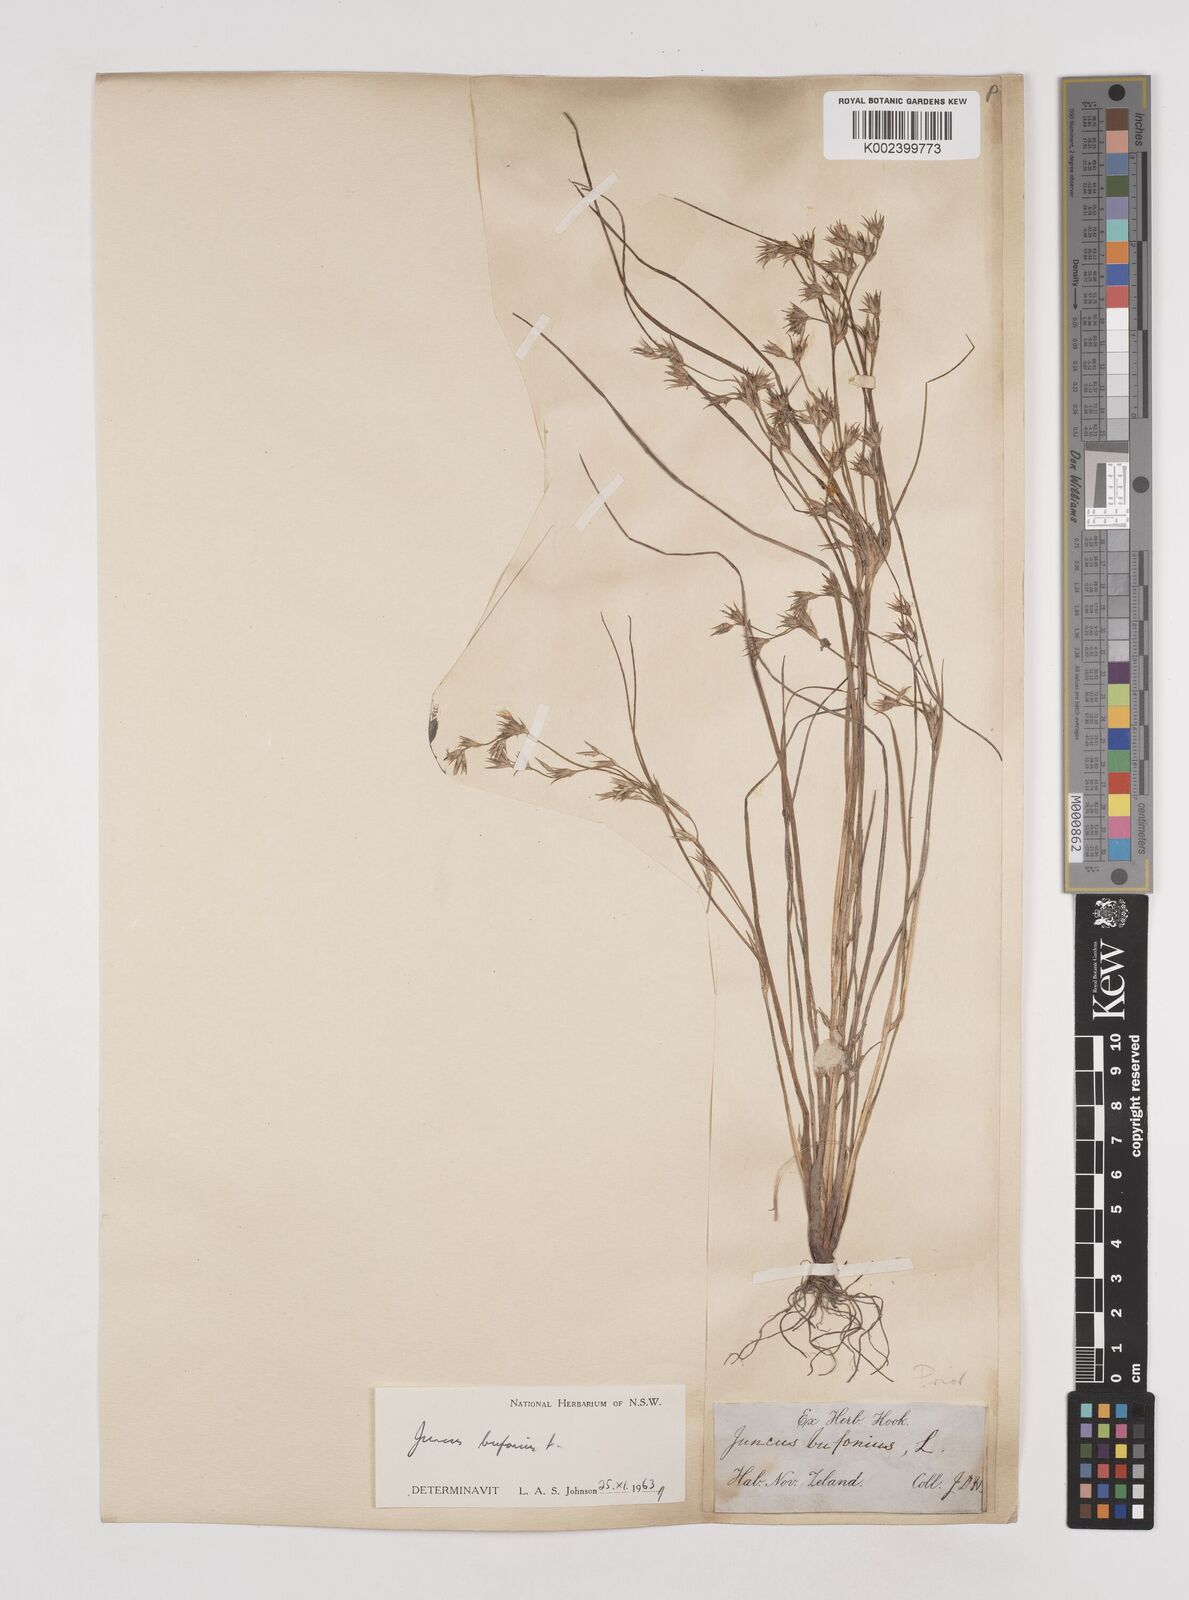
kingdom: Plantae
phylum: Tracheophyta
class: Liliopsida
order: Poales
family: Juncaceae
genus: Juncus
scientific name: Juncus bufonius
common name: Toad rush
